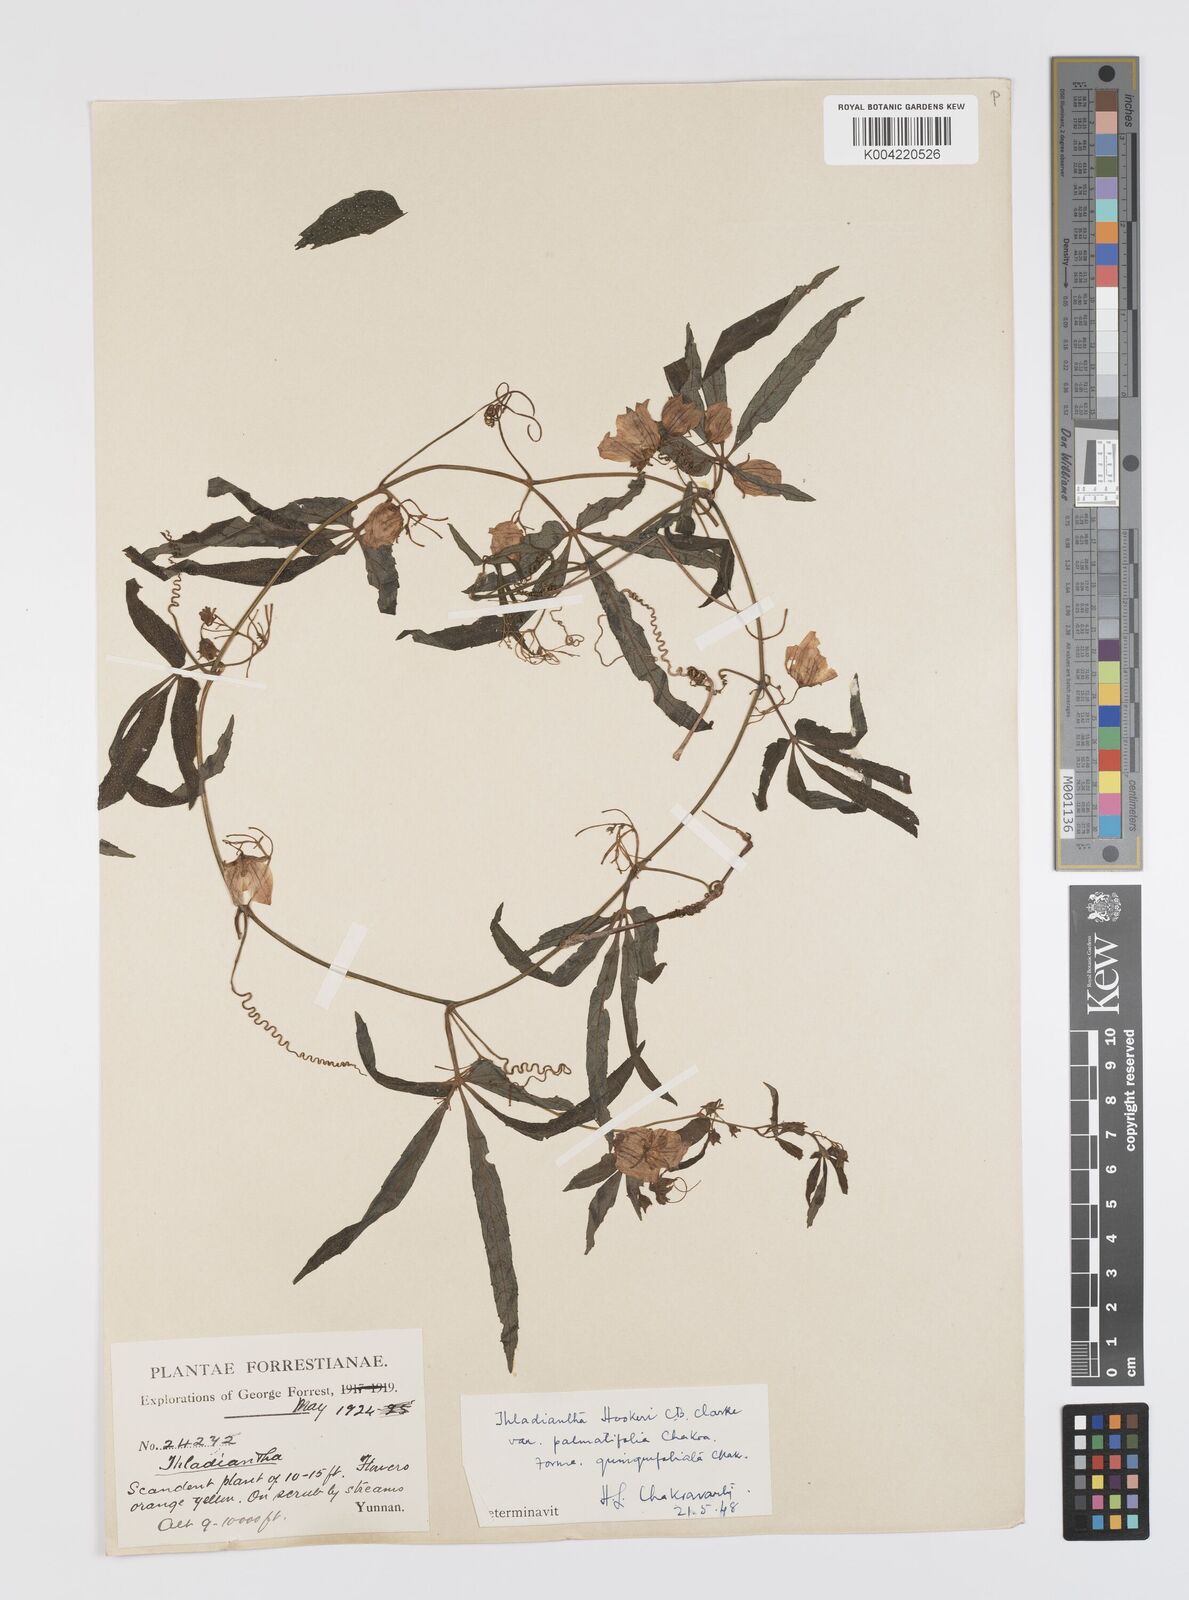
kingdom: Plantae
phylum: Tracheophyta
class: Magnoliopsida
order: Cucurbitales
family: Cucurbitaceae
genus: Thladiantha
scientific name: Thladiantha hookeri
